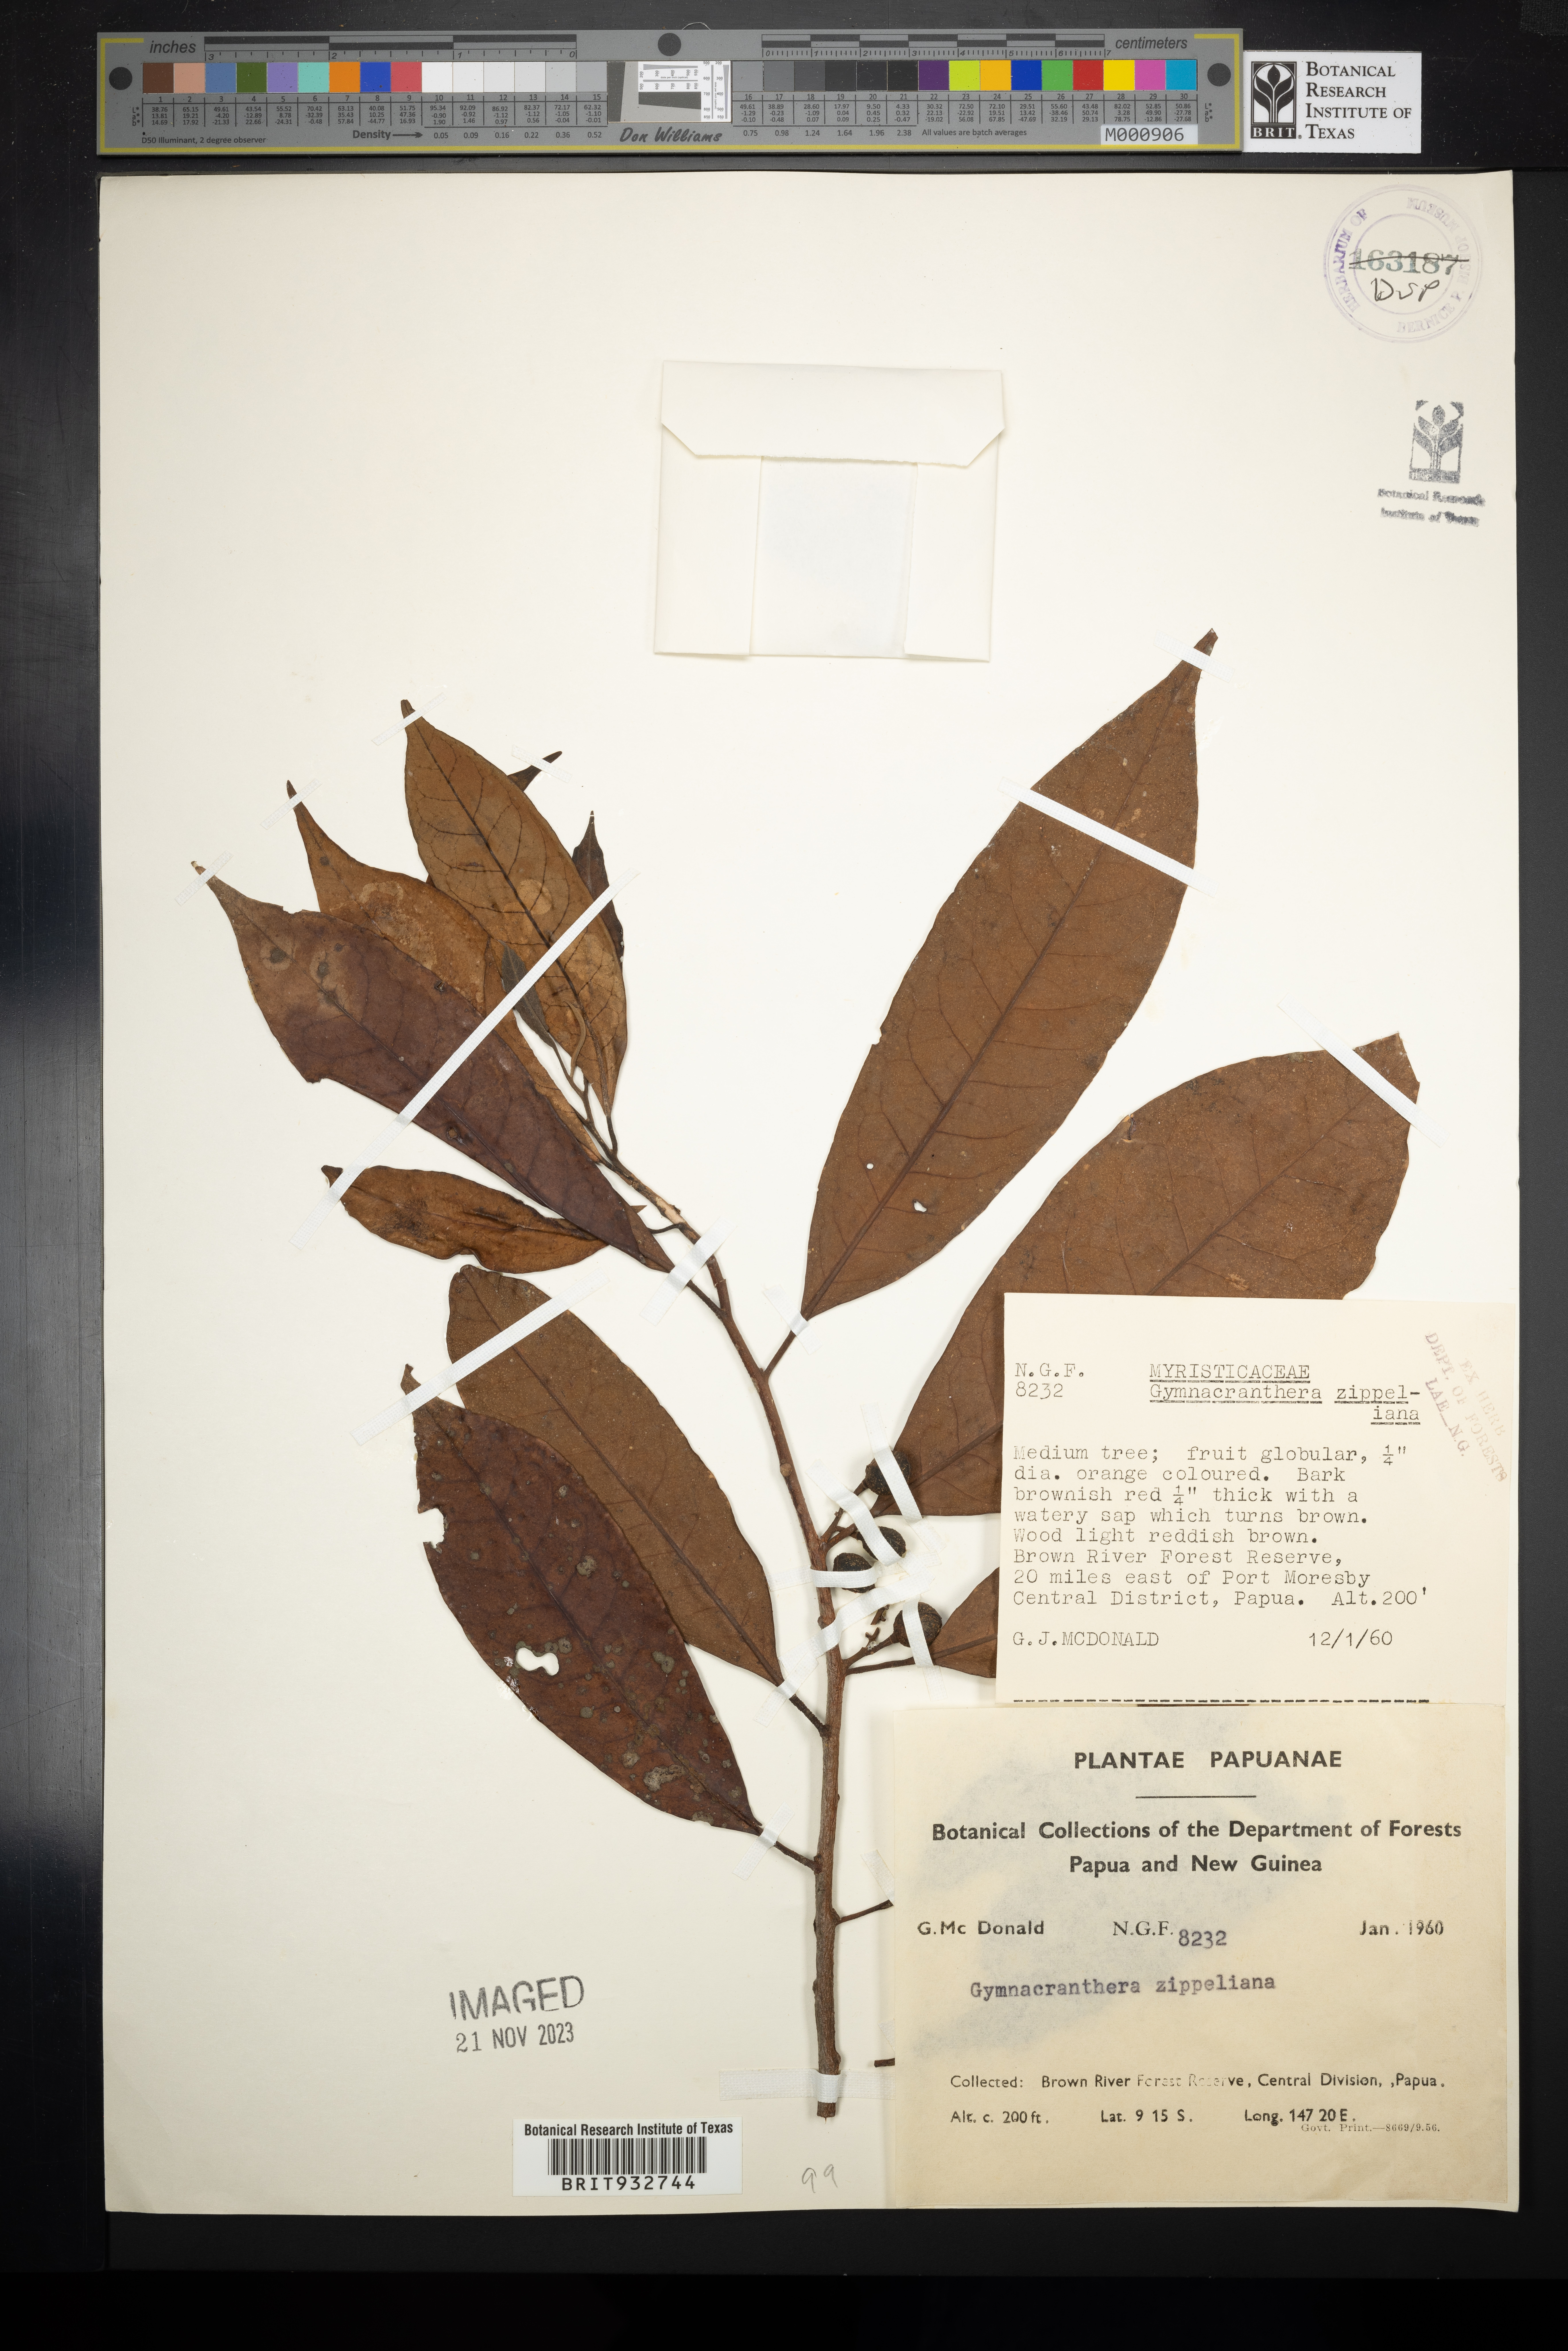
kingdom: Plantae
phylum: Tracheophyta
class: Magnoliopsida
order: Magnoliales
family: Myristicaceae
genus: Gymnacranthera
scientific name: Gymnacranthera
